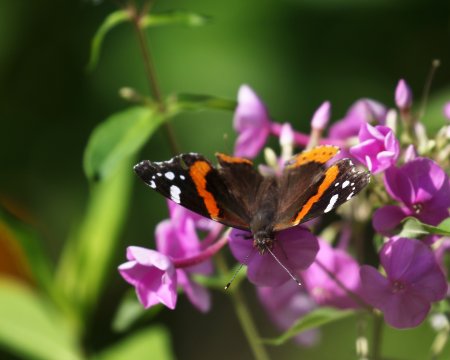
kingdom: Animalia
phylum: Arthropoda
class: Insecta
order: Lepidoptera
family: Nymphalidae
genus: Vanessa
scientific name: Vanessa atalanta
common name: Red Admiral
